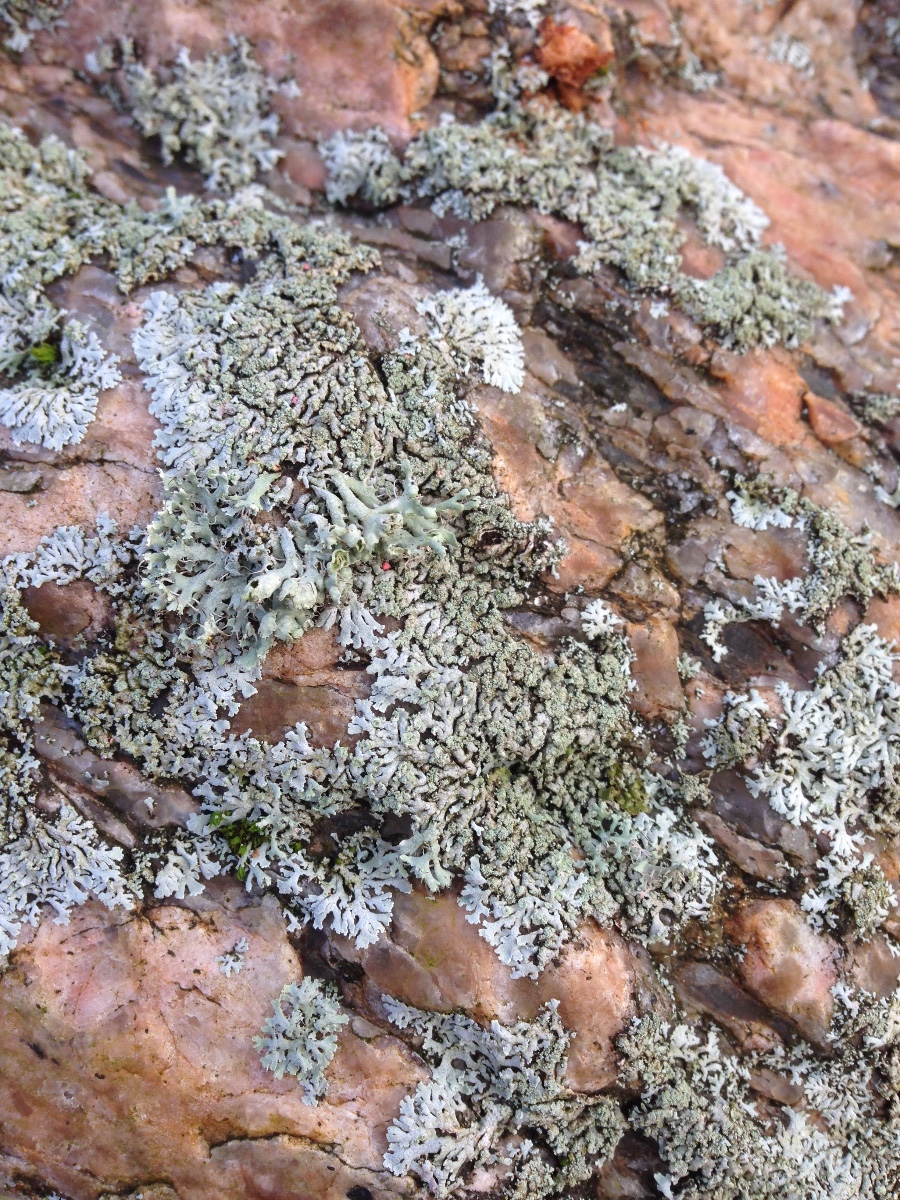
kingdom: Fungi
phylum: Ascomycota
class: Lecanoromycetes
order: Caliciales
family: Physciaceae
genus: Physcia
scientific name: Physcia
